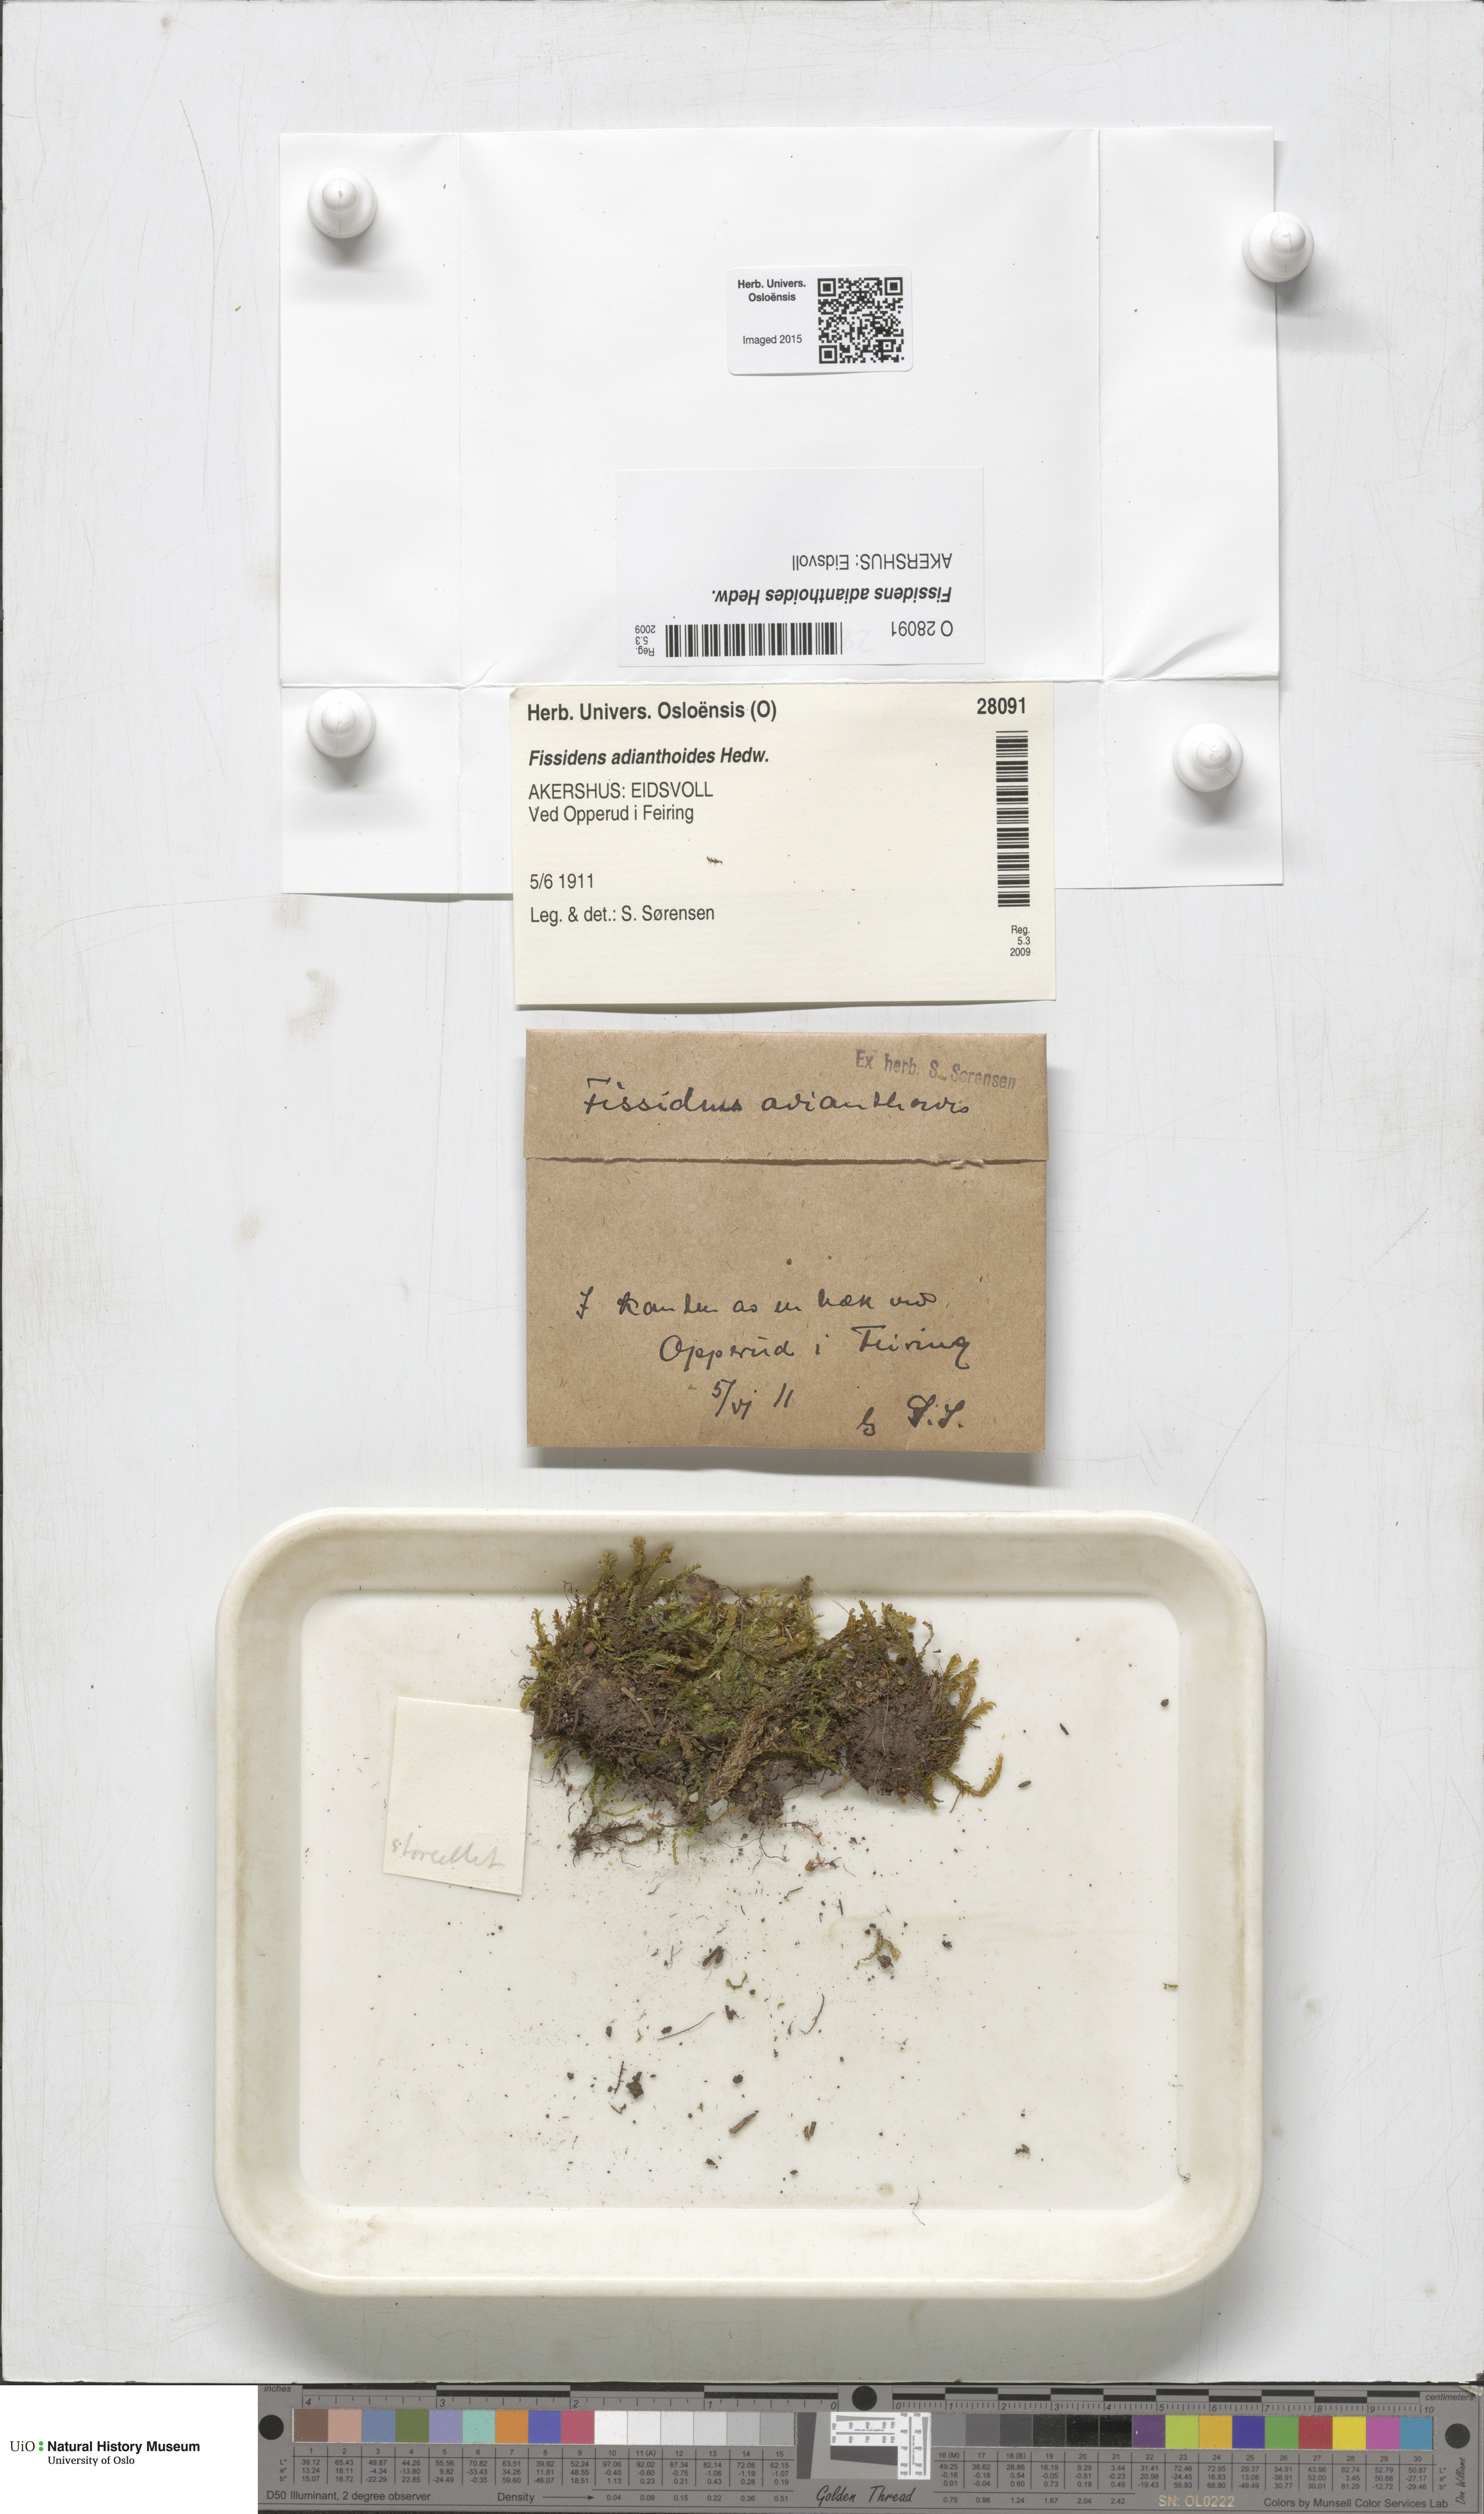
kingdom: Plantae
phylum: Bryophyta
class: Bryopsida
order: Dicranales
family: Fissidentaceae
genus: Fissidens
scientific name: Fissidens adianthoides
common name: Maidenhair pocket moss
